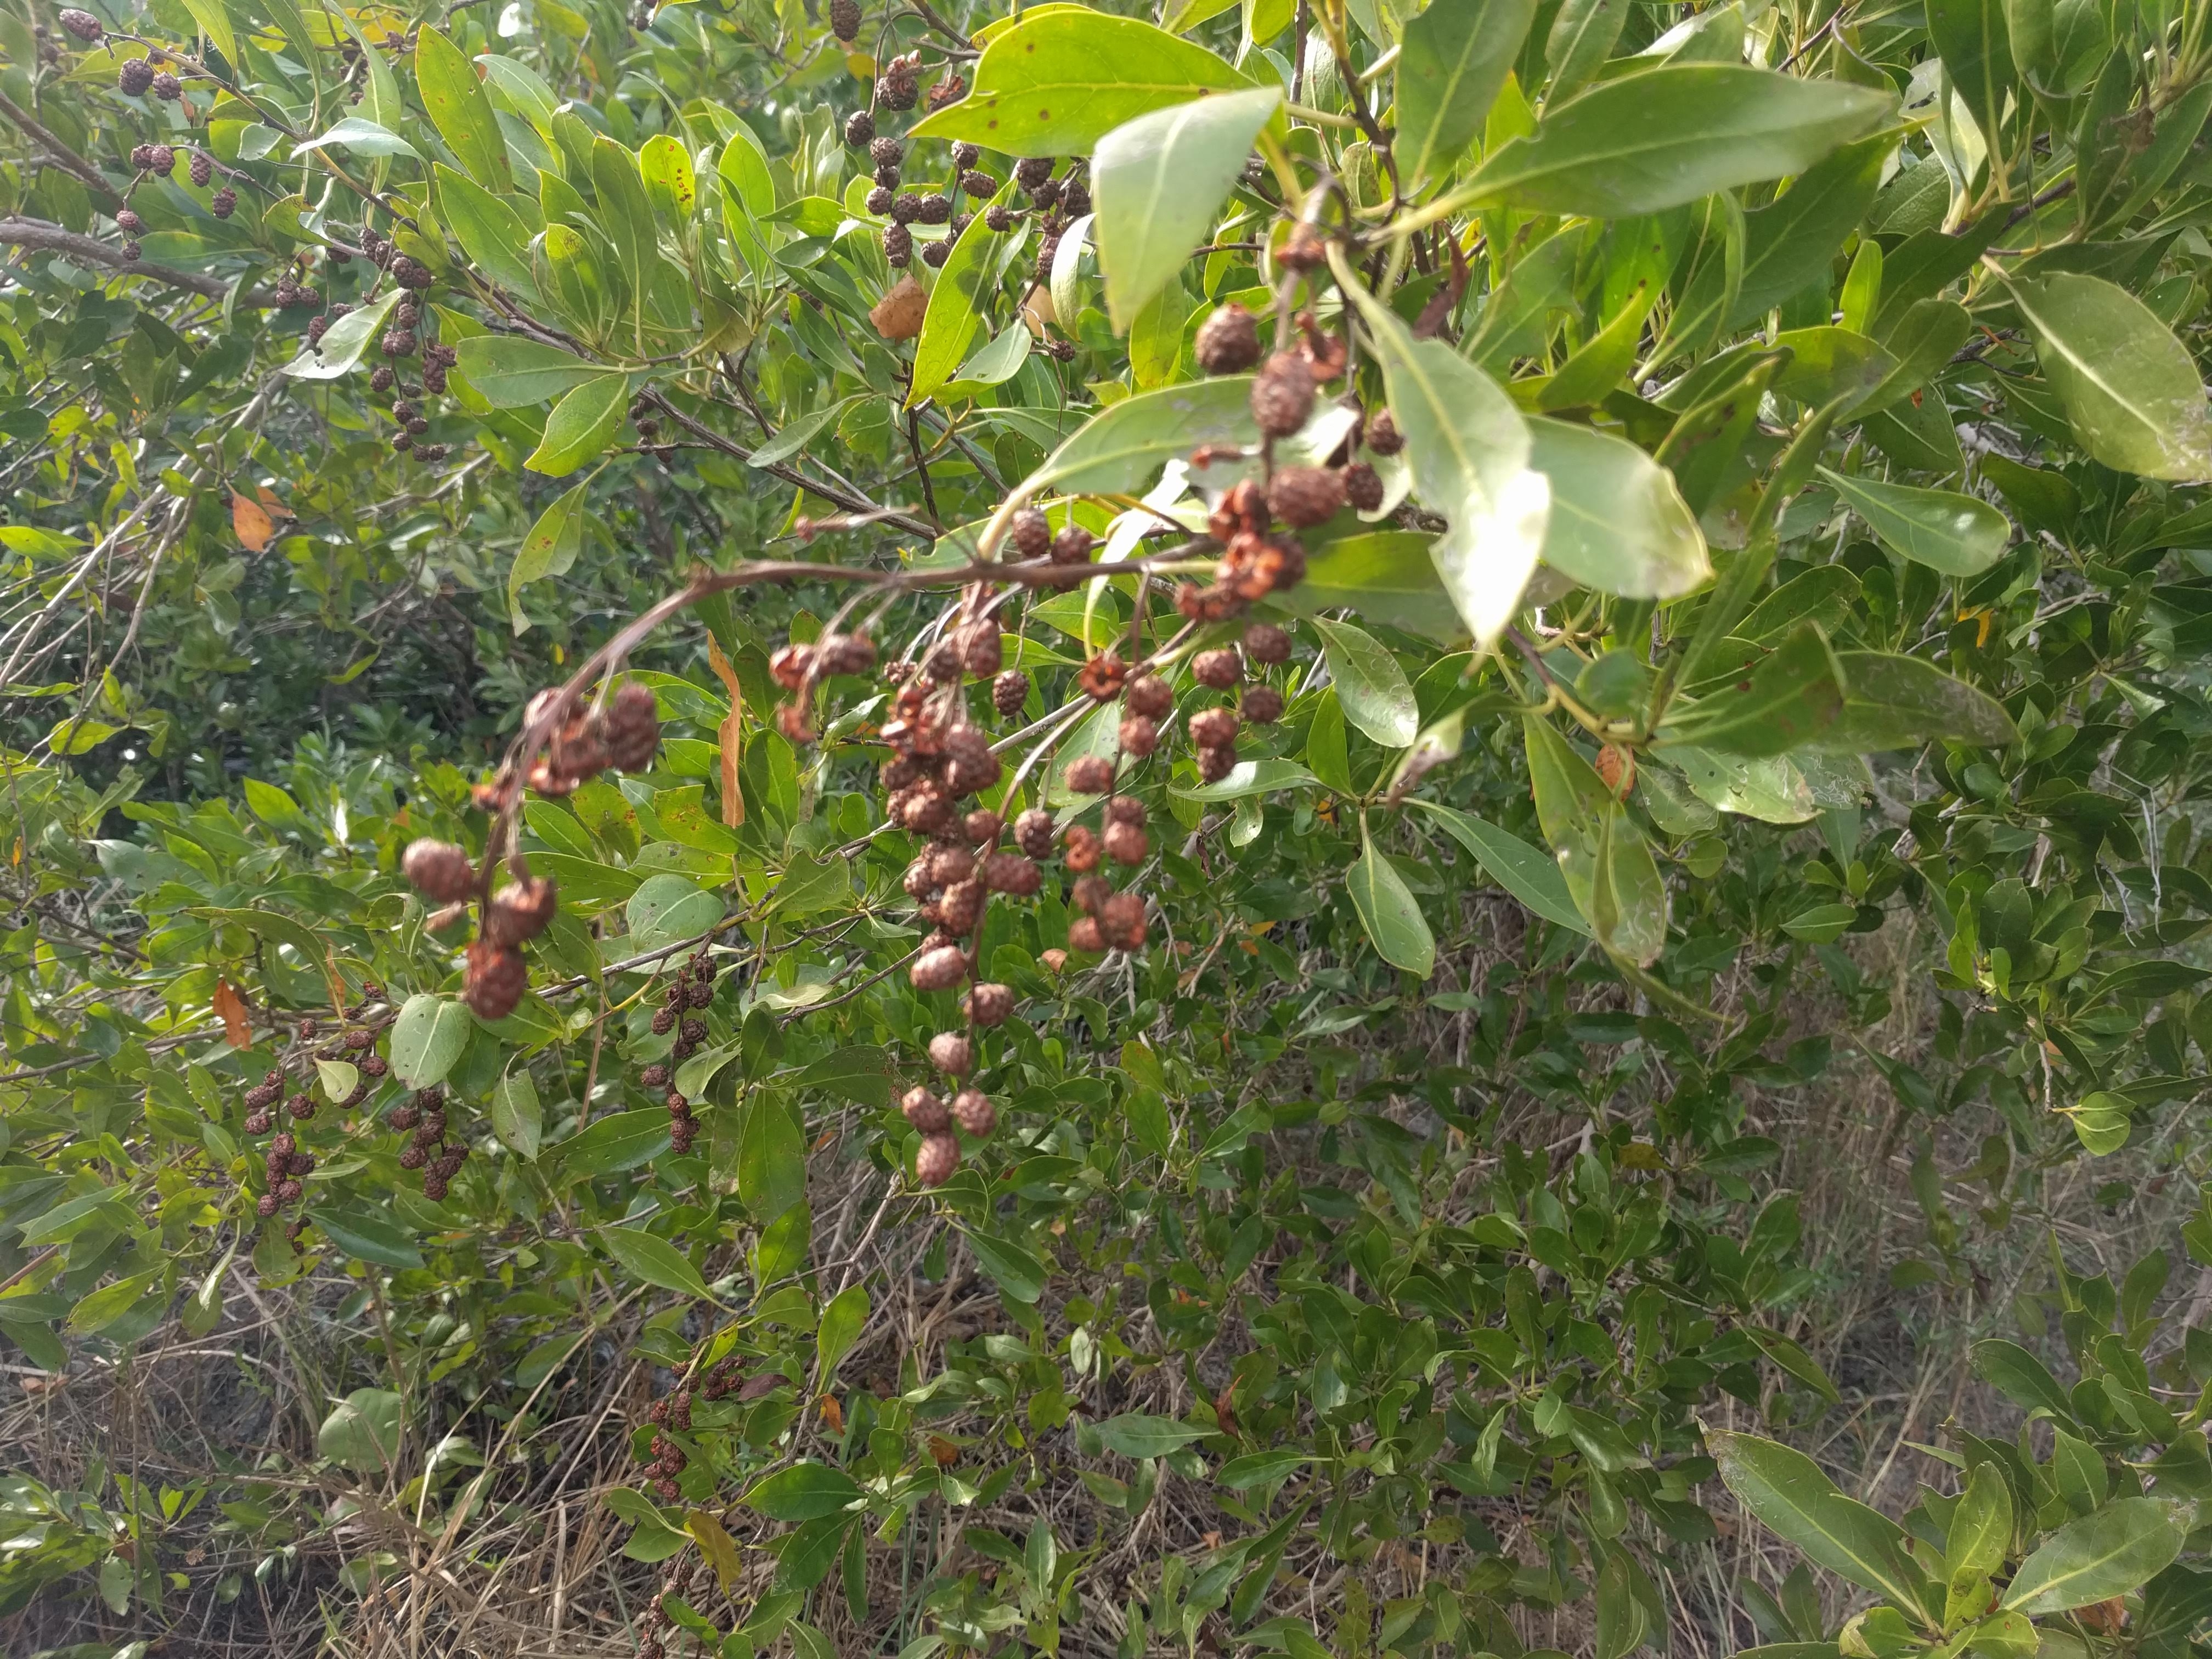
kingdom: Plantae
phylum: Tracheophyta
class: Magnoliopsida
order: Myrtales
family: Combretaceae
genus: Conocarpus
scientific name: Conocarpus erectus
